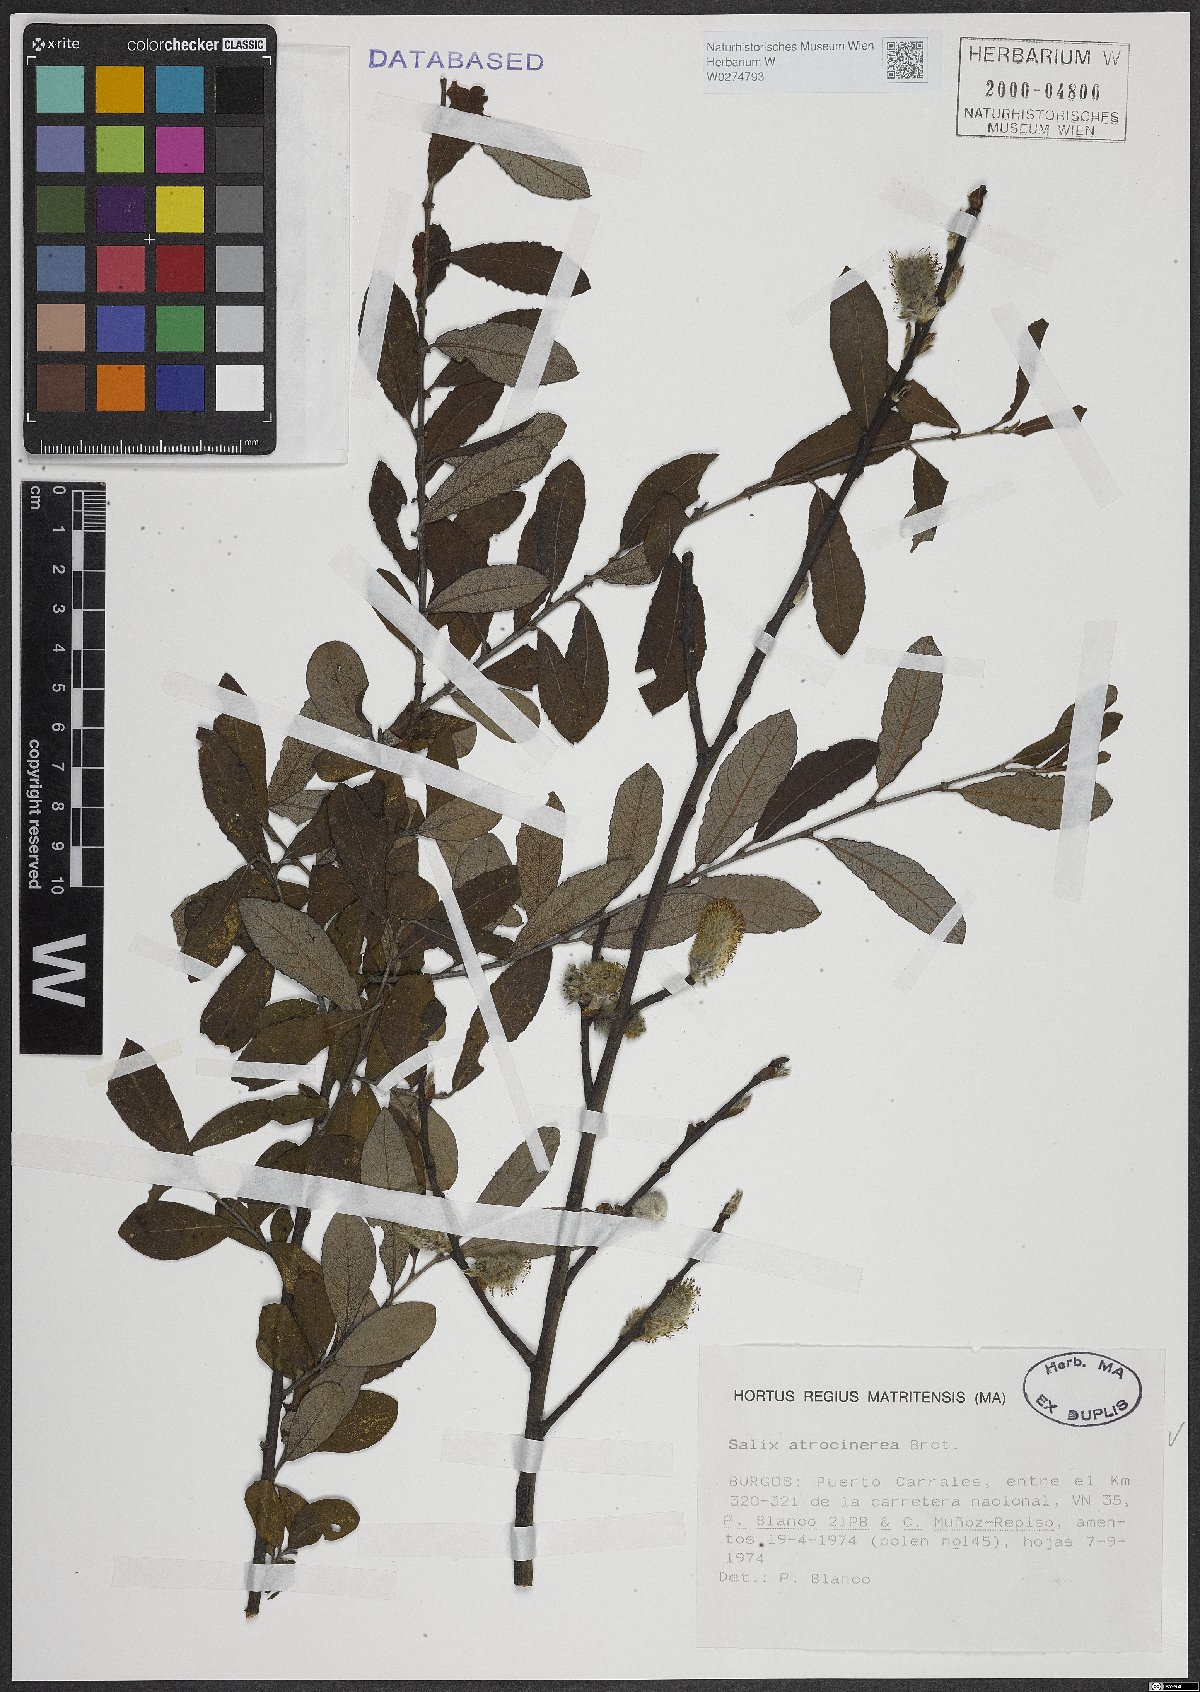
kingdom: Plantae
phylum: Tracheophyta
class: Magnoliopsida
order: Malpighiales
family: Salicaceae
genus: Salix
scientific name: Salix atrocinerea
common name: Rusty willow
